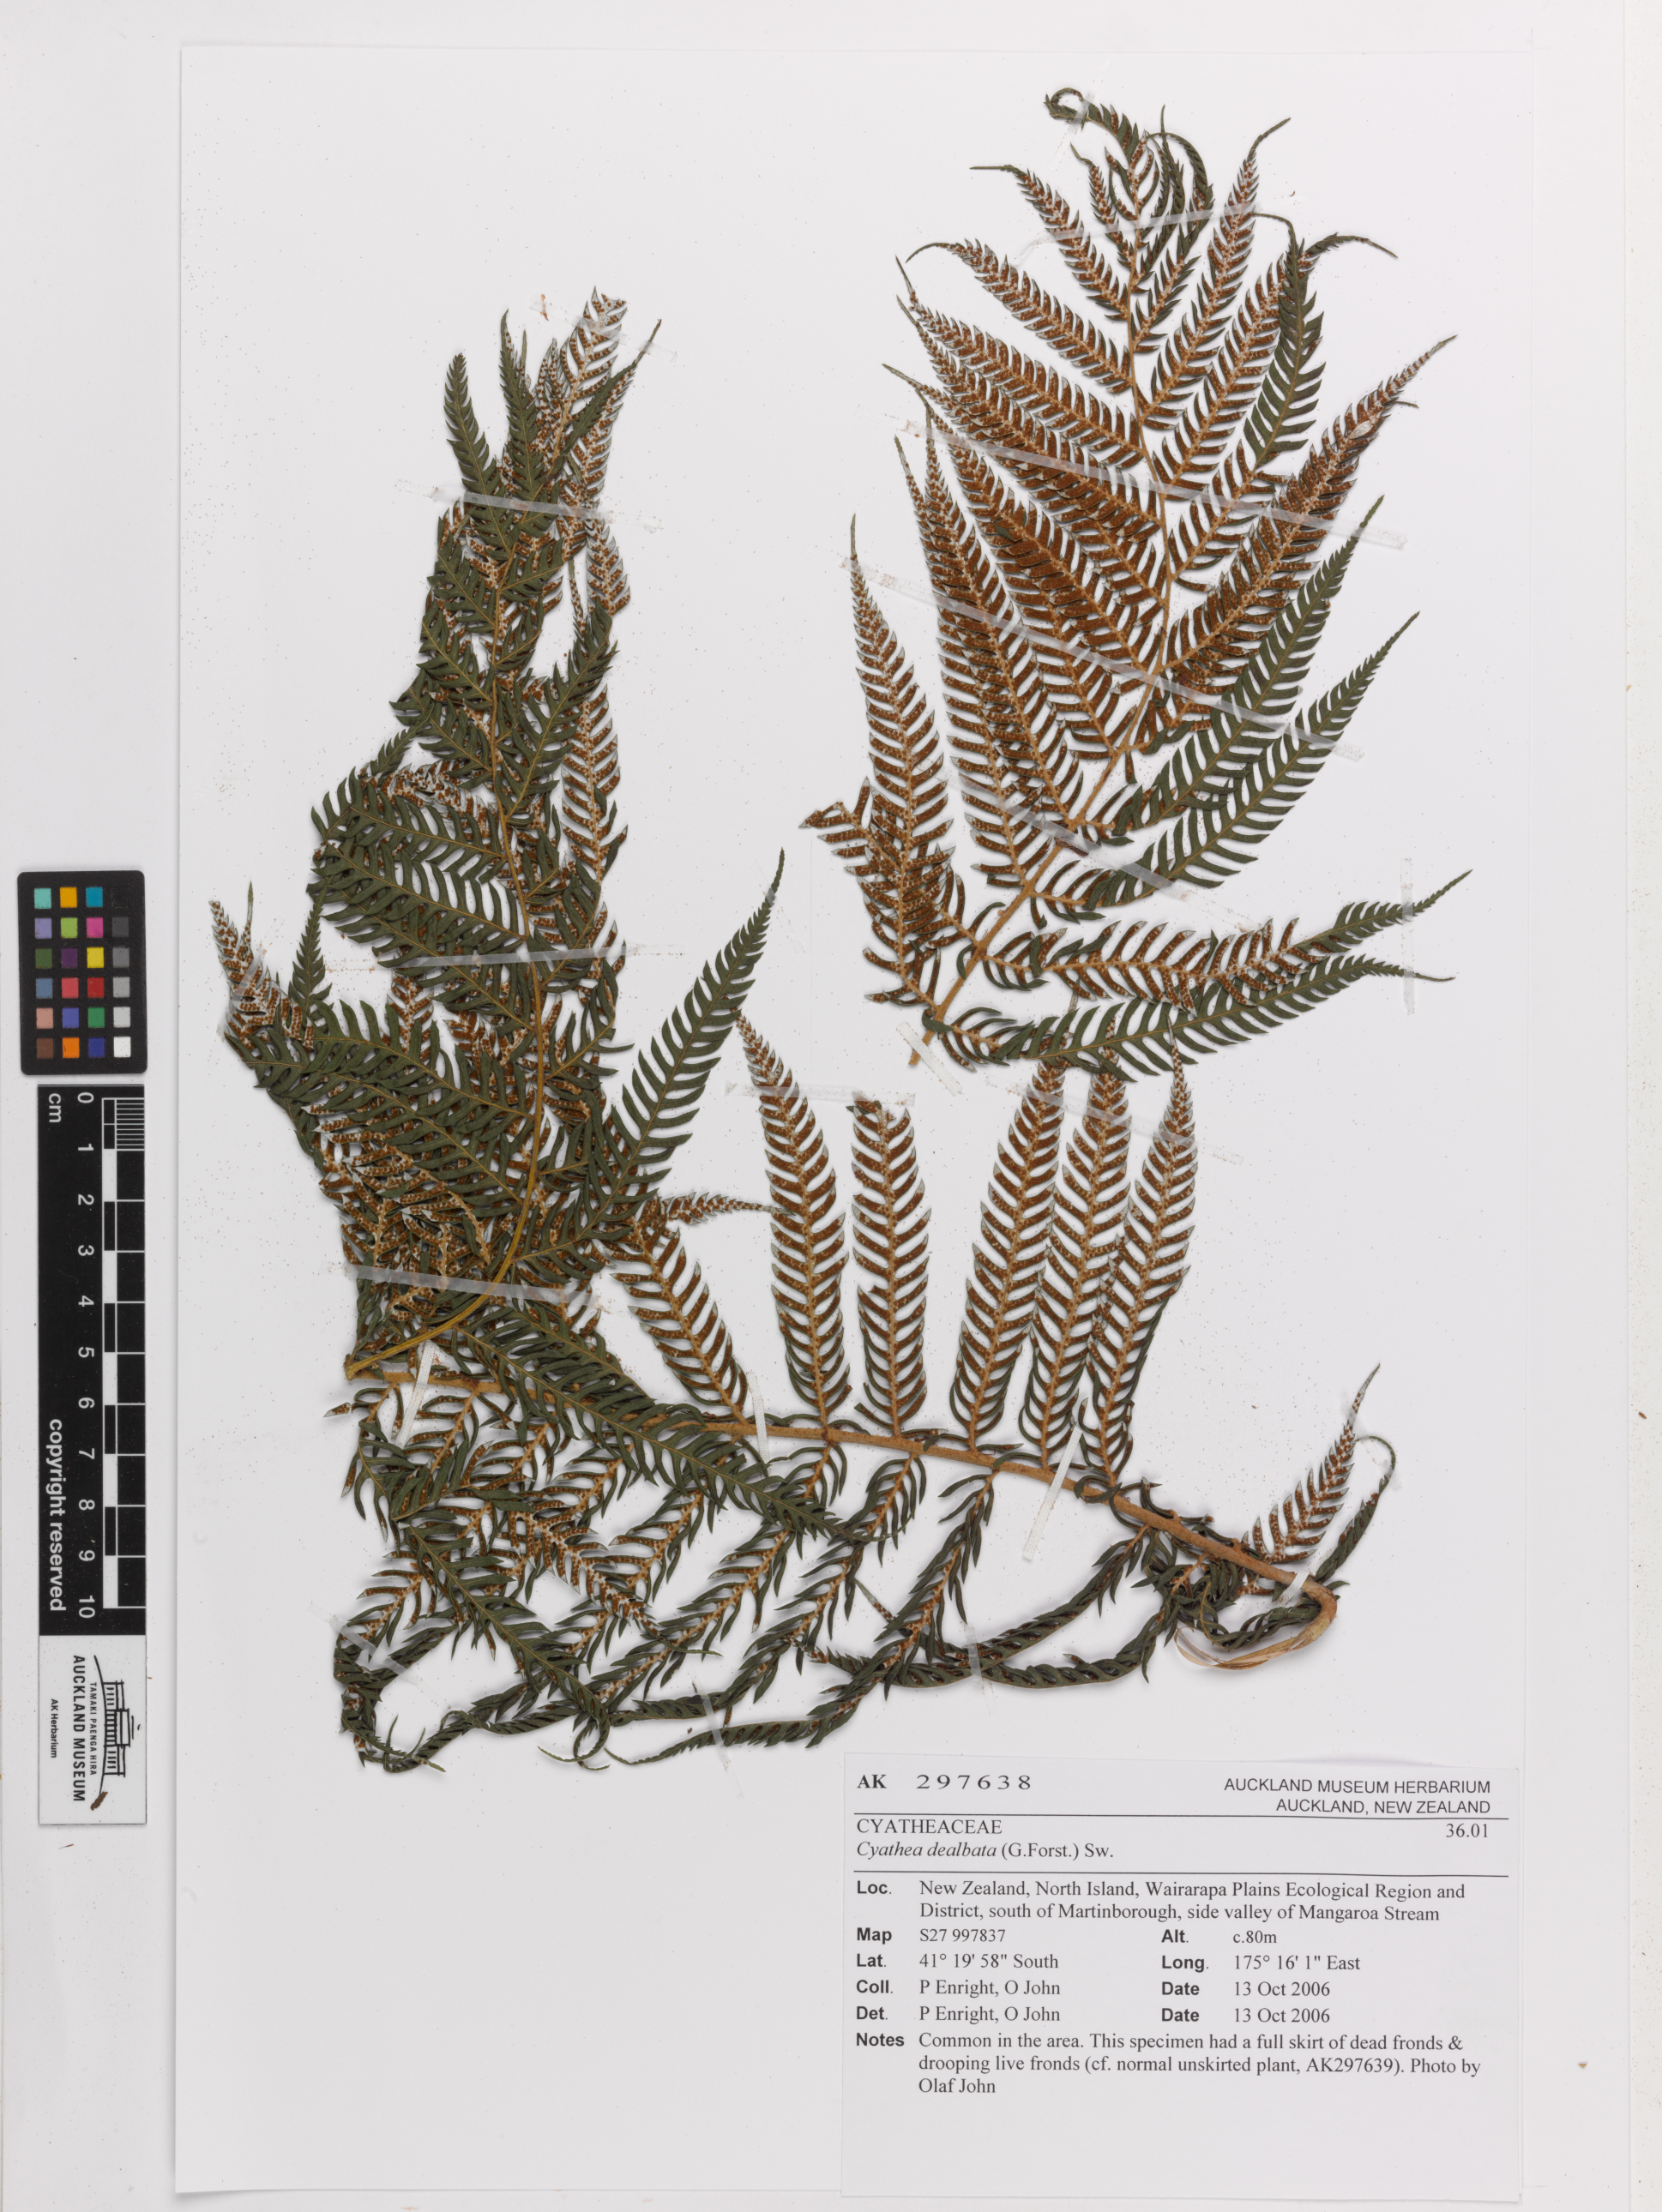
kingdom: Plantae
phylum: Tracheophyta
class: Polypodiopsida
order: Cyatheales
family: Cyatheaceae
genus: Alsophila
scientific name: Alsophila dealbata
